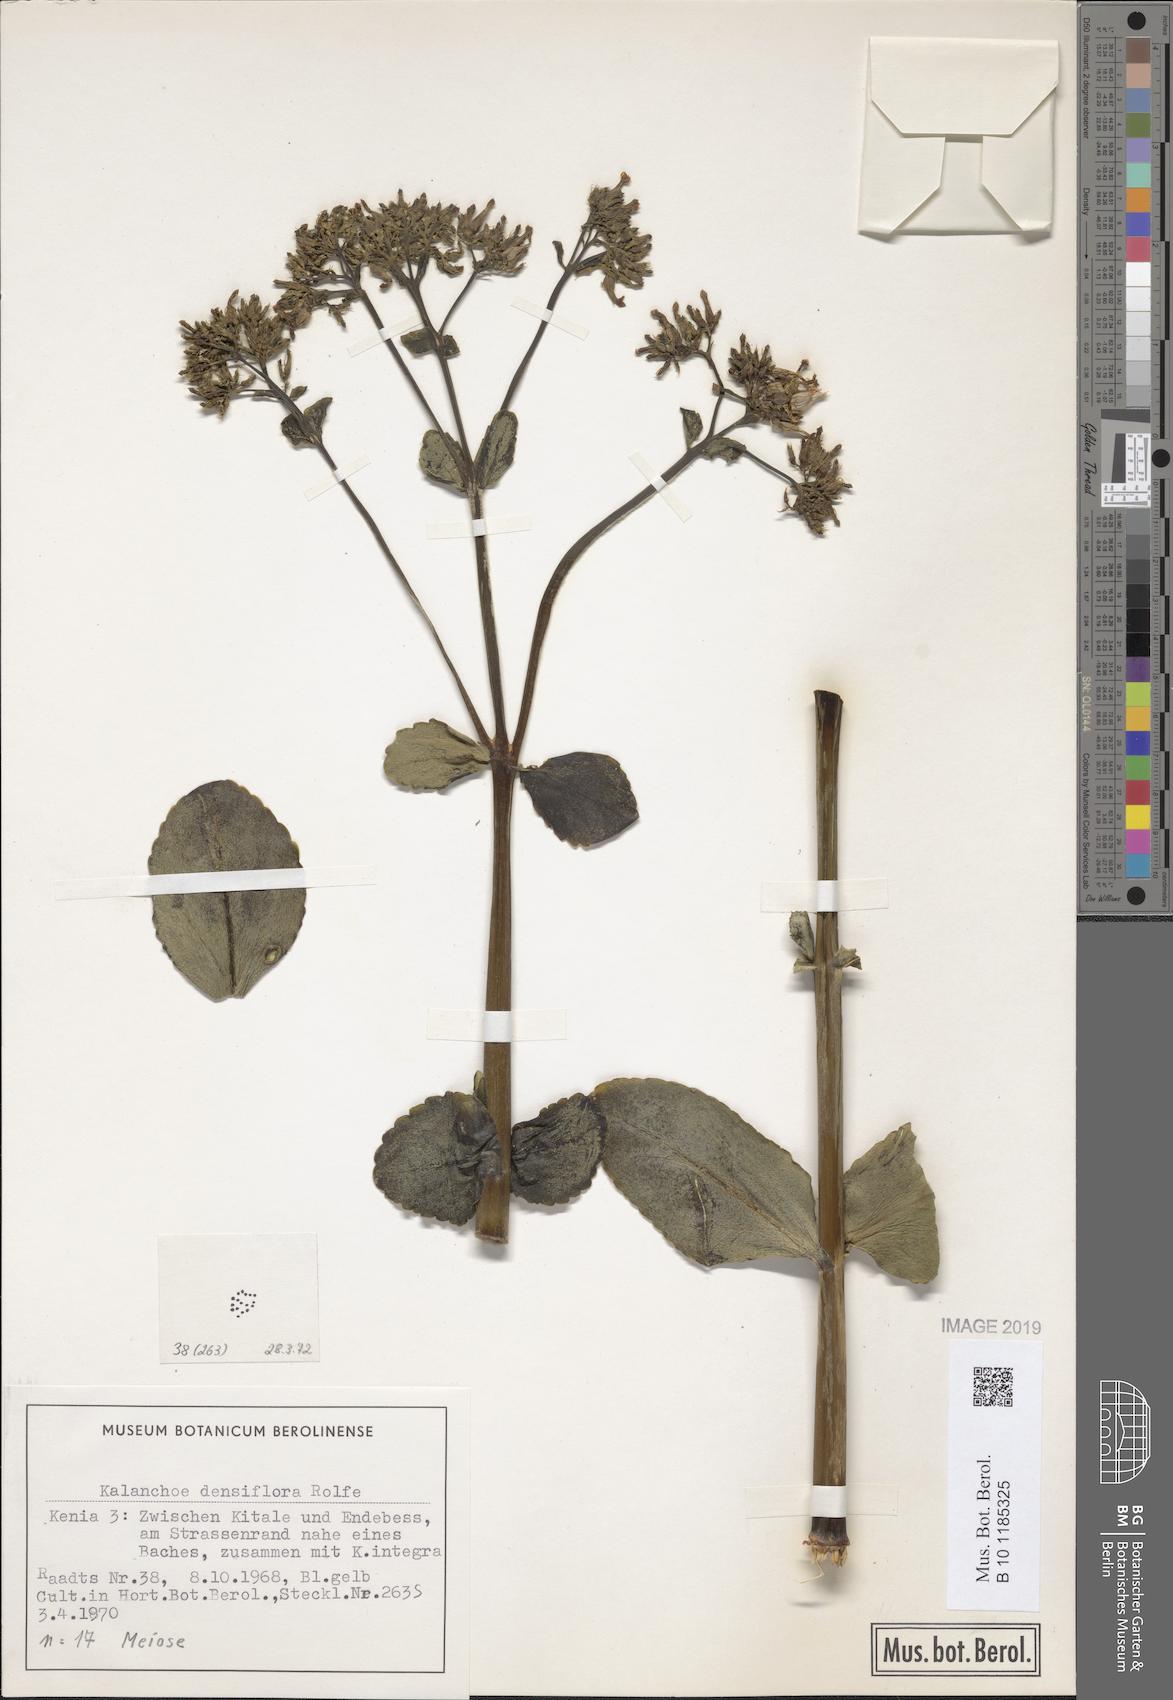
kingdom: Plantae
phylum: Tracheophyta
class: Magnoliopsida
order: Saxifragales
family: Crassulaceae
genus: Kalanchoe
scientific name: Kalanchoe densiflora
